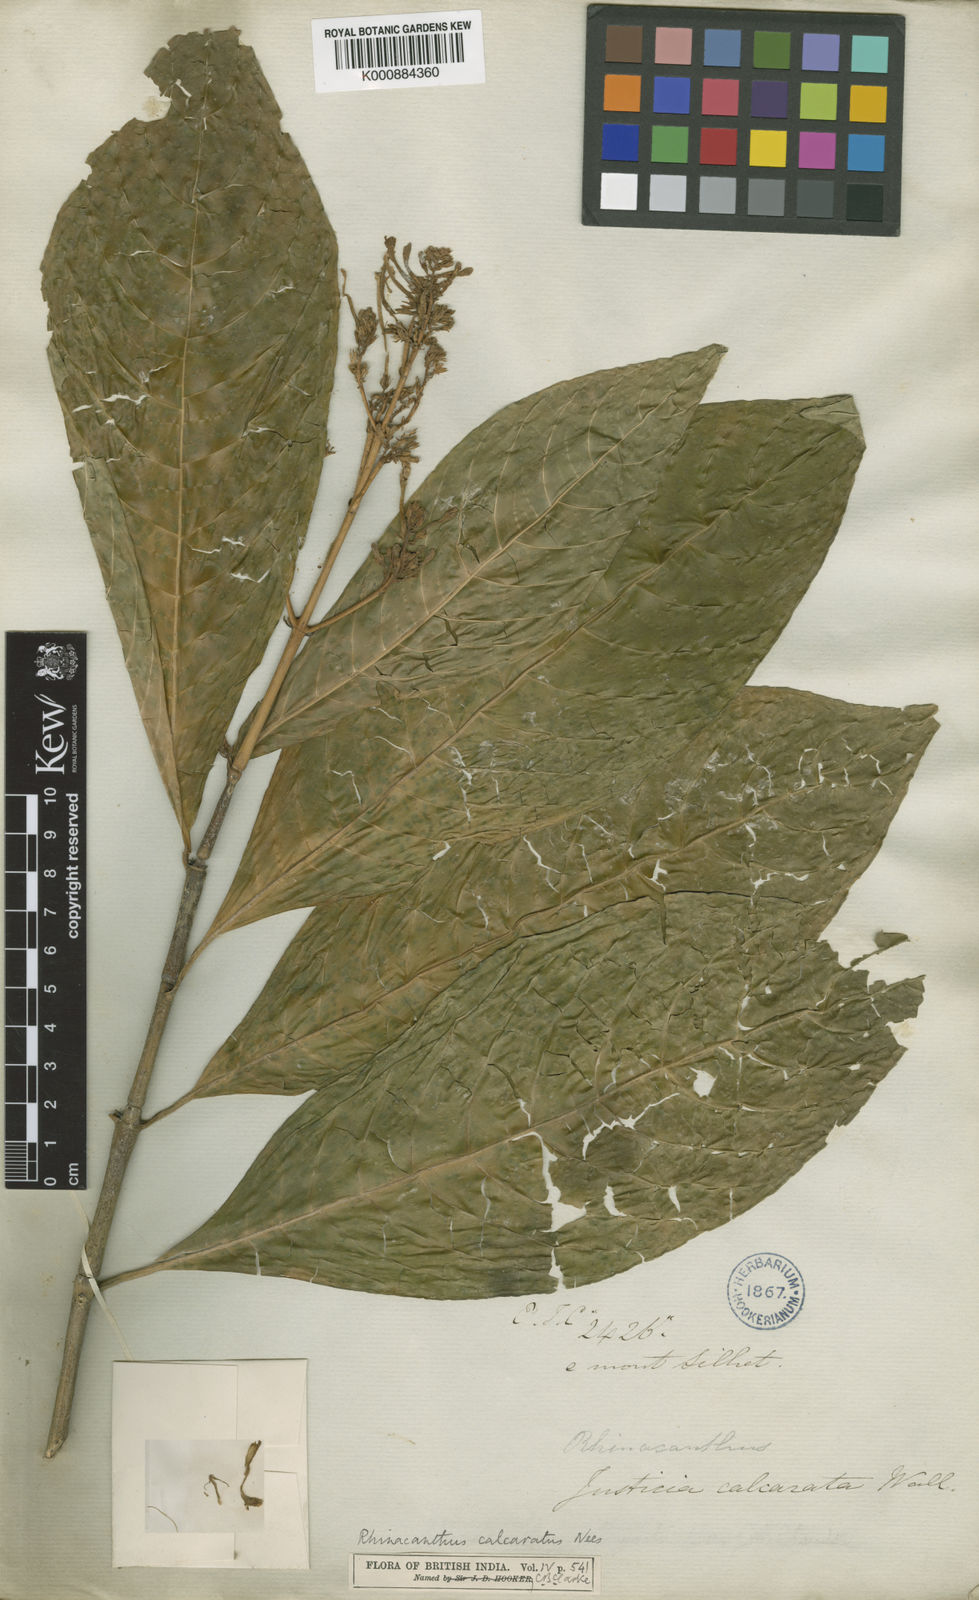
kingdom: Plantae
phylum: Tracheophyta
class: Magnoliopsida
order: Lamiales
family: Acanthaceae
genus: Rhinacanthus
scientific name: Rhinacanthus calcaratus
